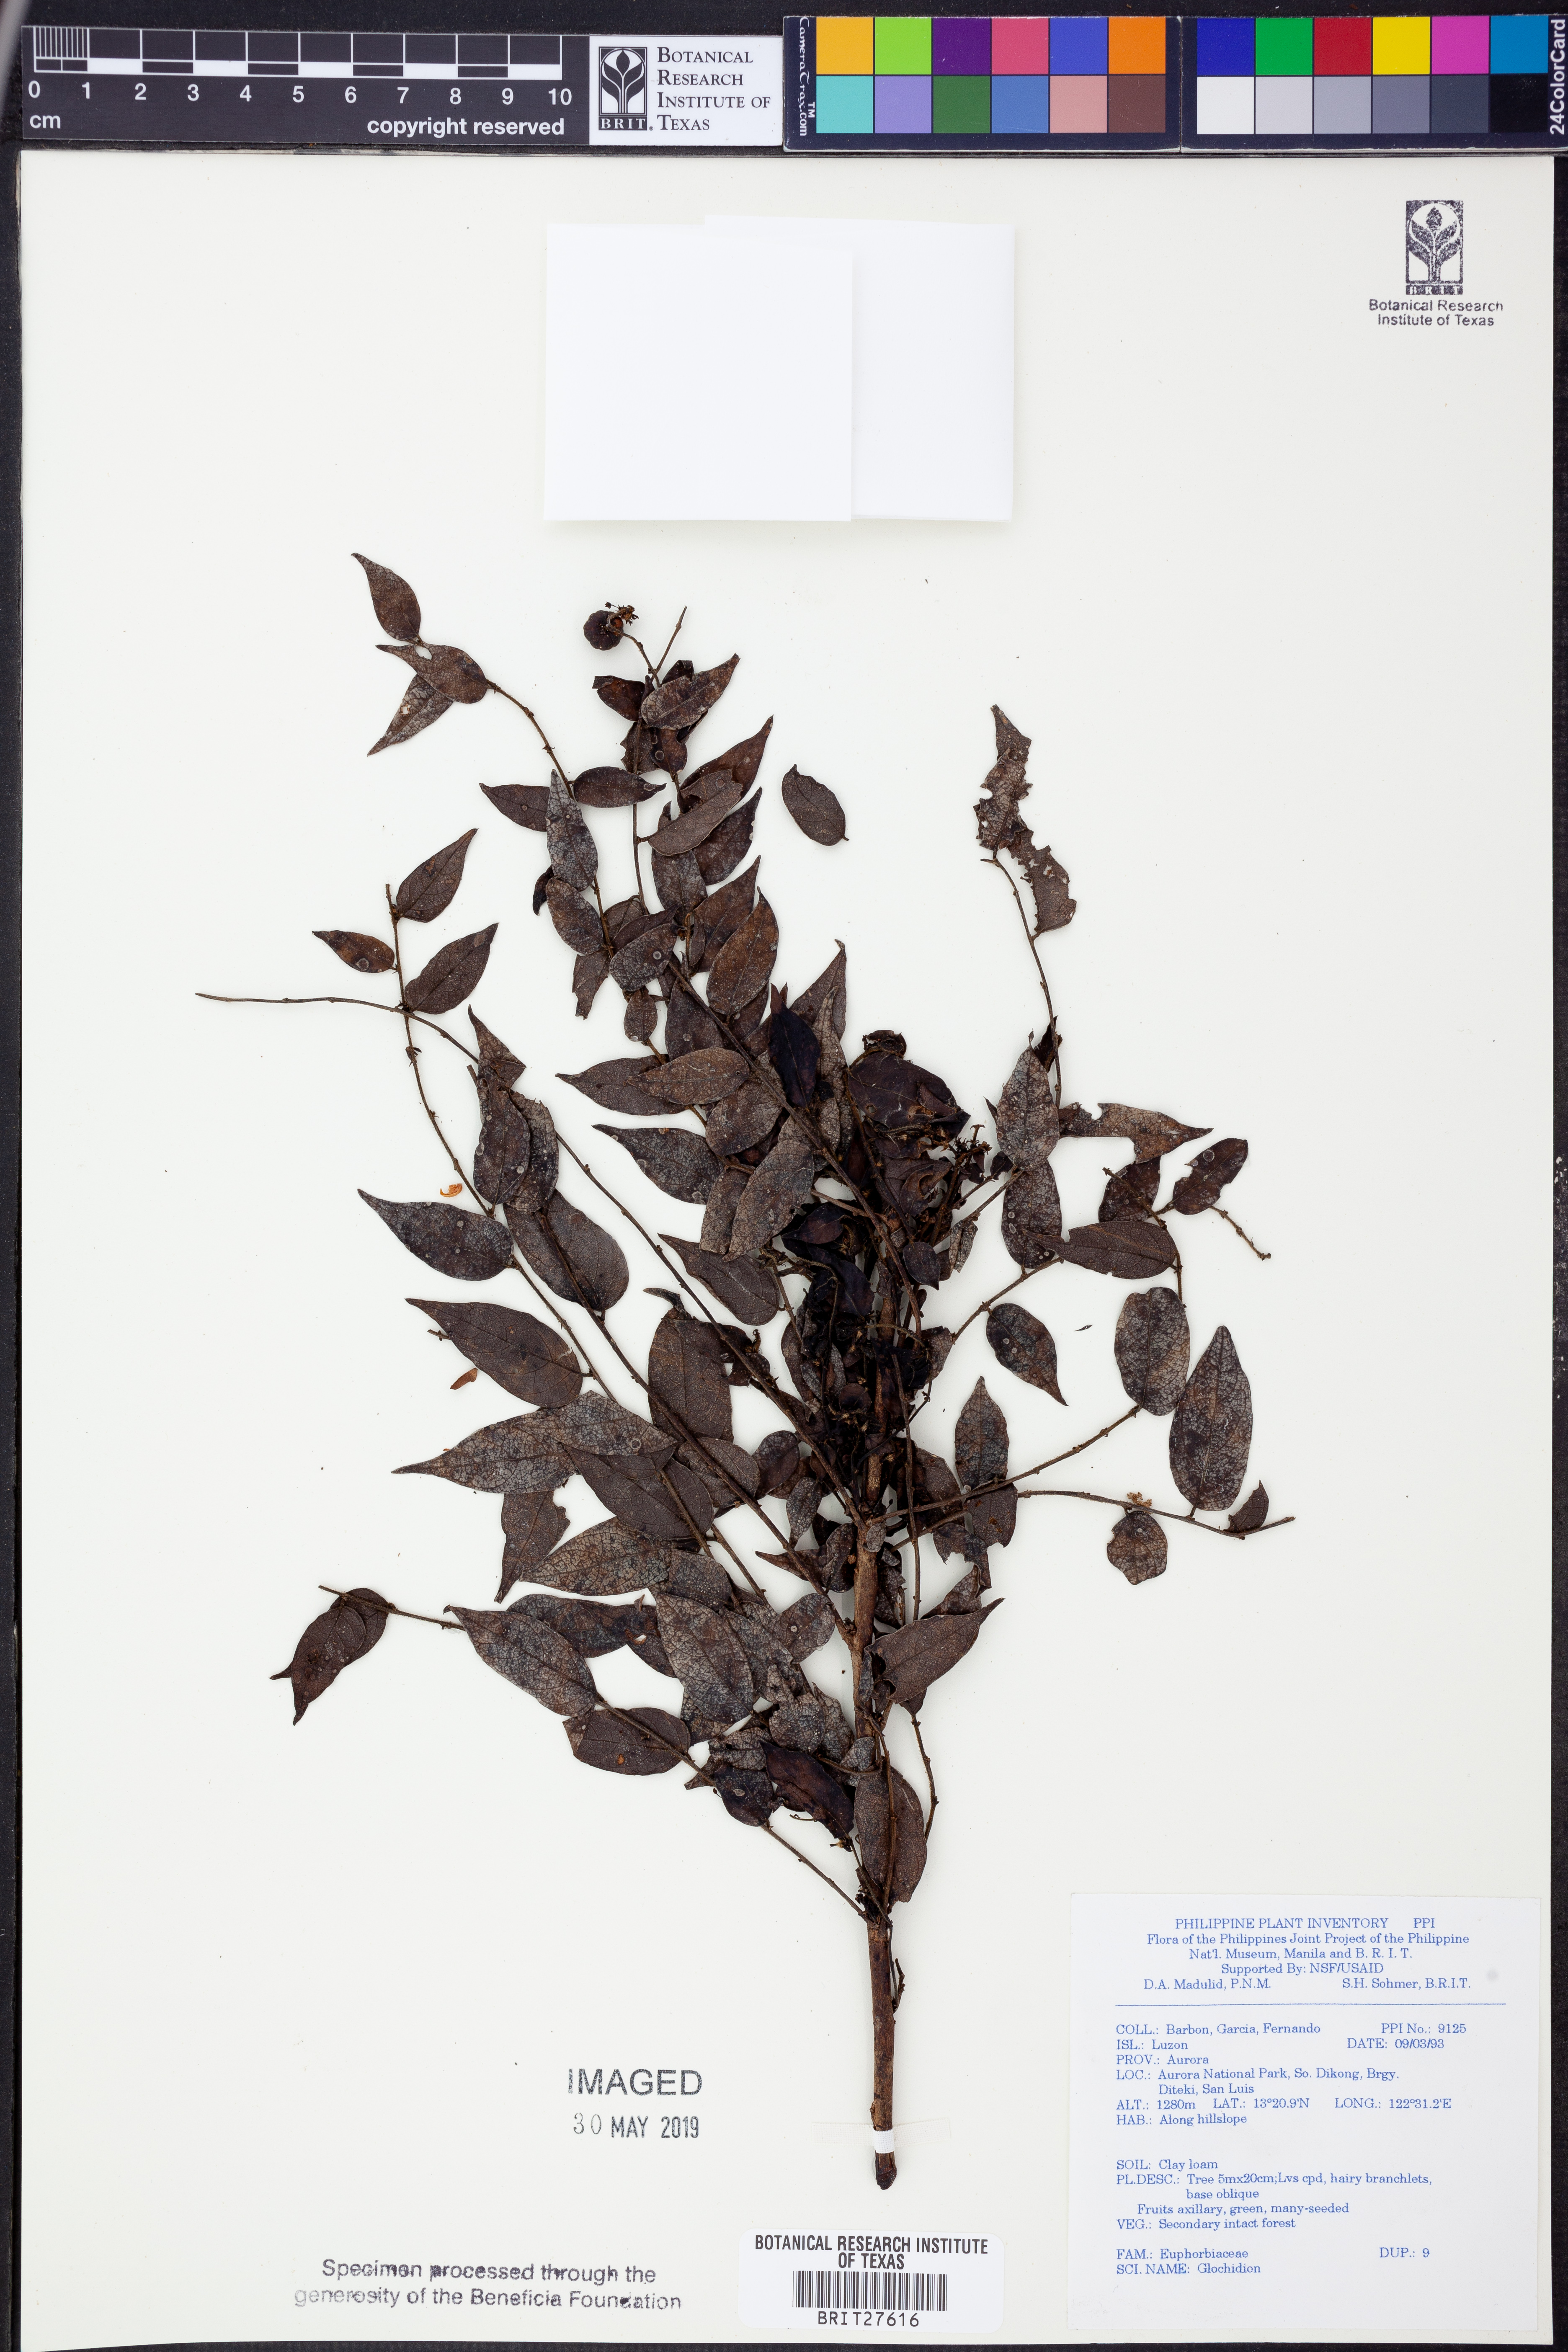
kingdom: Plantae
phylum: Tracheophyta
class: Magnoliopsida
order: Malpighiales
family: Phyllanthaceae
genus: Glochidion
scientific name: Glochidion
